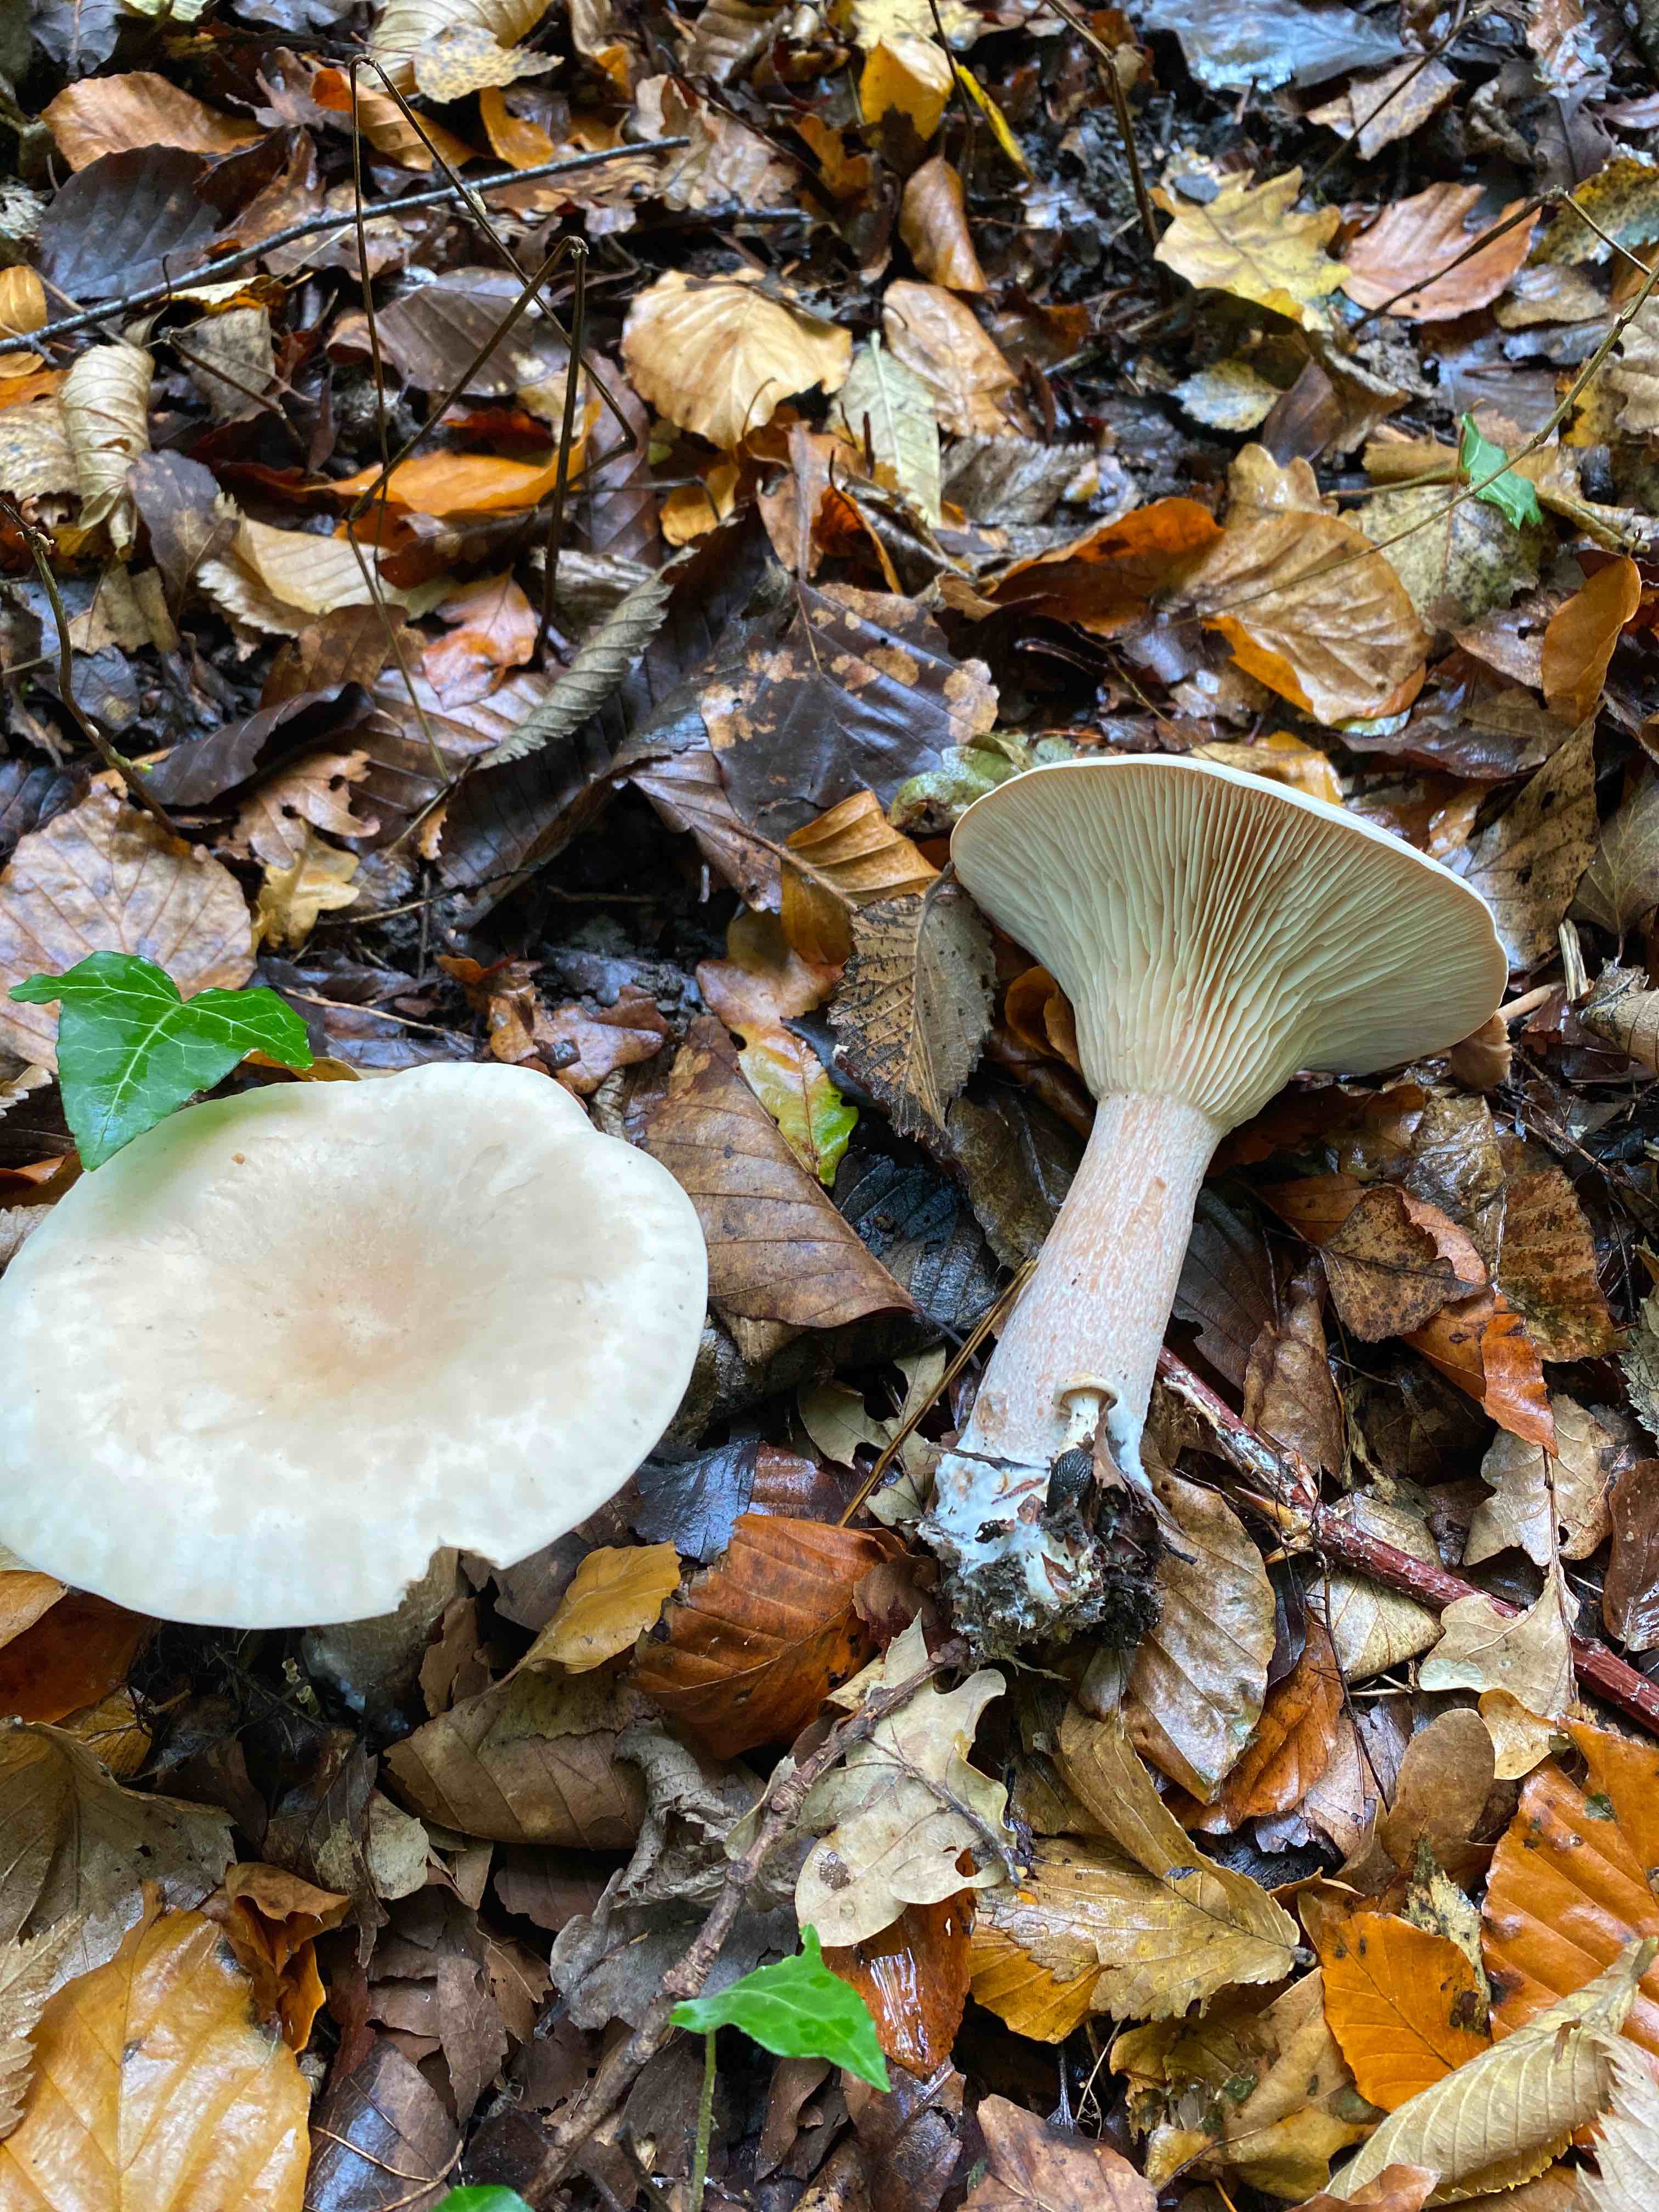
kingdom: Fungi
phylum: Basidiomycota
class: Agaricomycetes
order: Agaricales
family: Tricholomataceae
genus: Infundibulicybe
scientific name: Infundibulicybe geotropa
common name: stor tragthat
